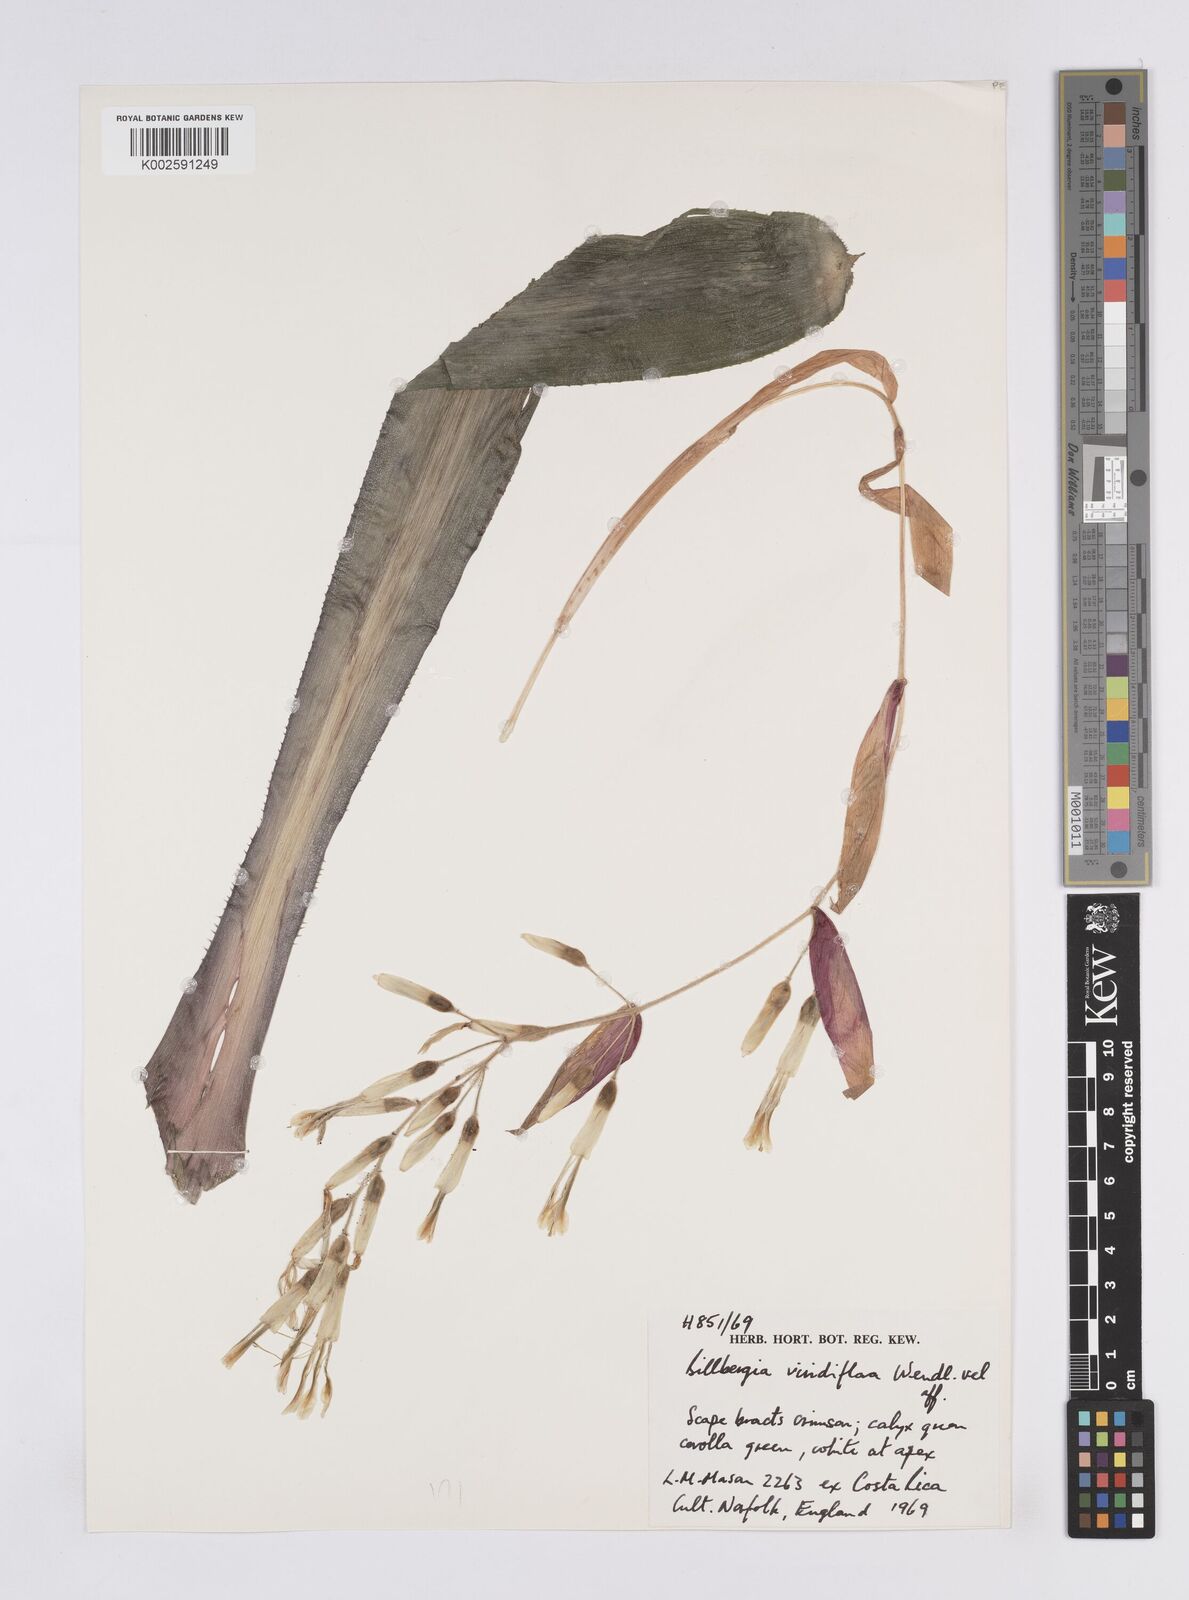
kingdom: Plantae
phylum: Tracheophyta
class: Liliopsida
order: Poales
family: Bromeliaceae
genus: Billbergia
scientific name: Billbergia
